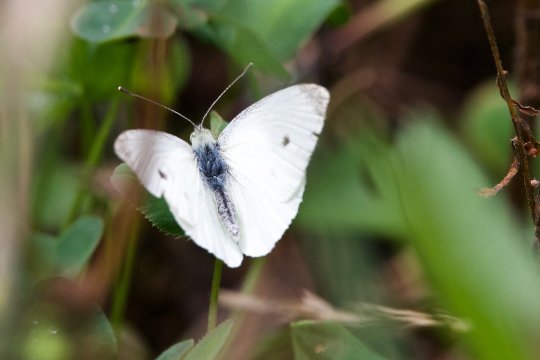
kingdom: Animalia
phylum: Arthropoda
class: Insecta
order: Lepidoptera
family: Pieridae
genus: Pieris
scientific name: Pieris rapae
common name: Cabbage White
